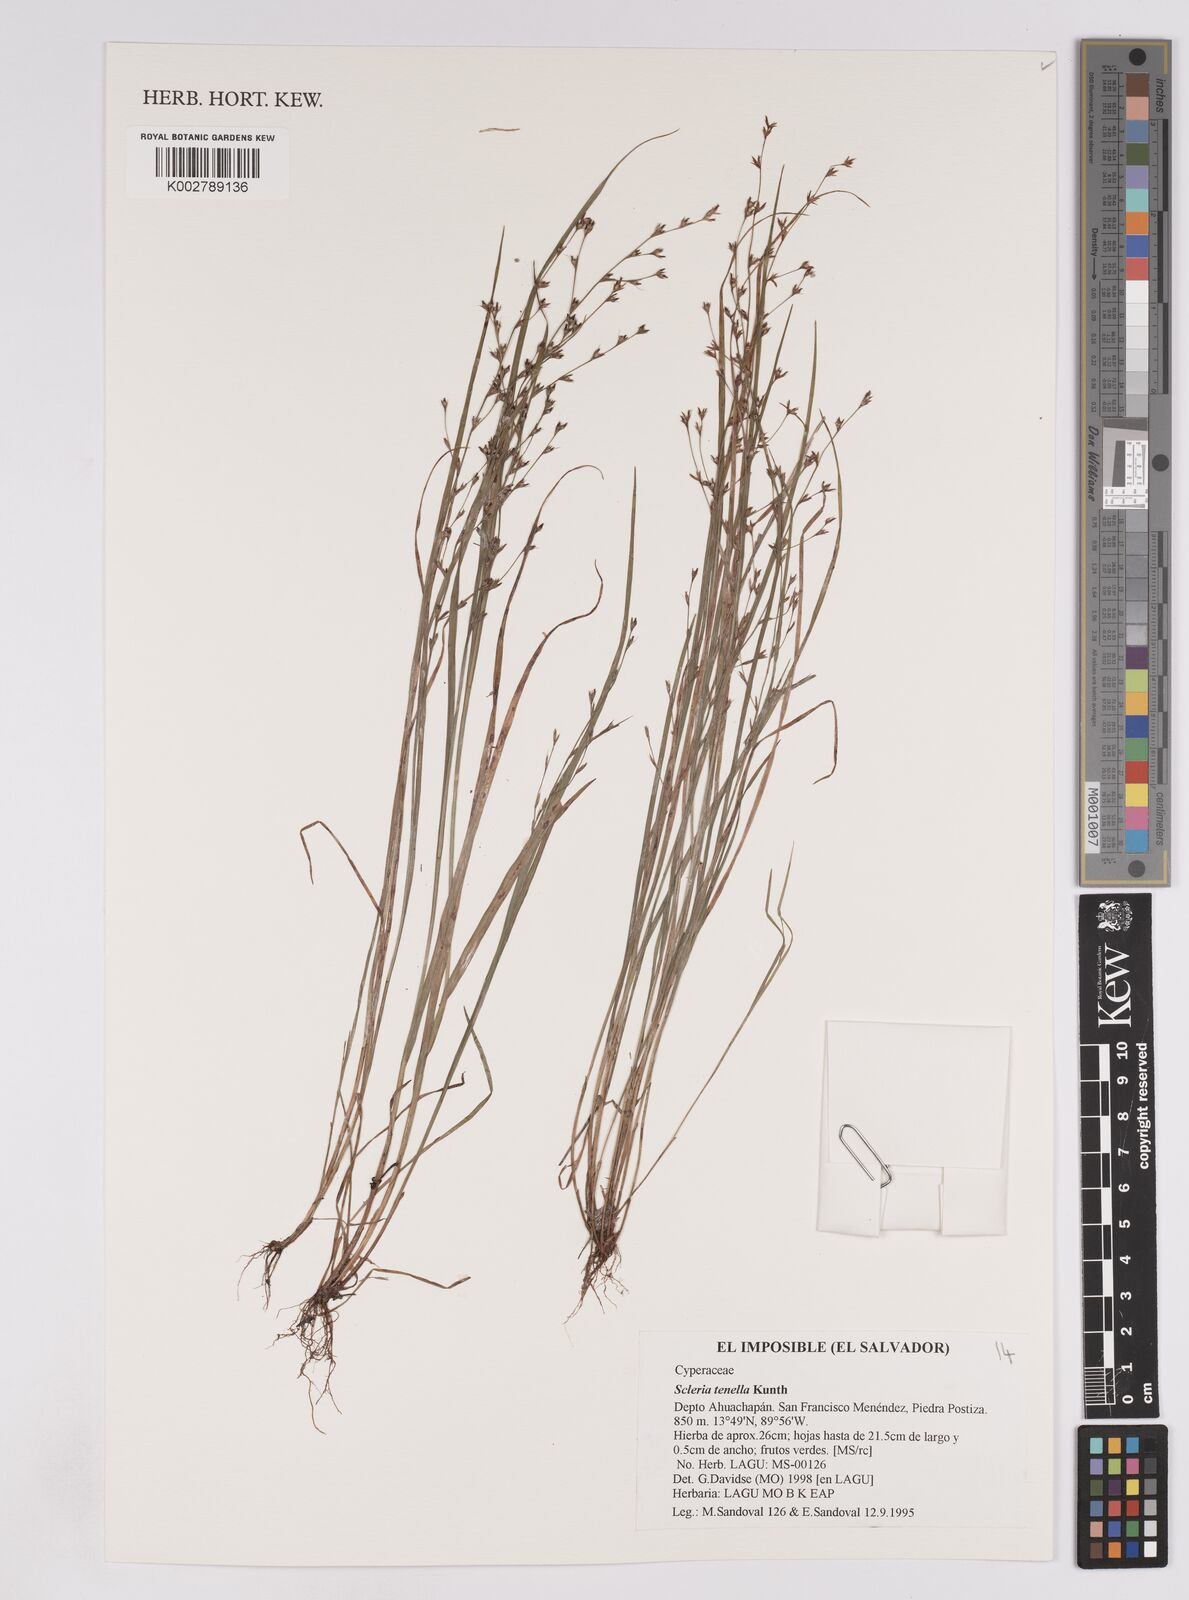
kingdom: Plantae
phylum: Tracheophyta
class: Liliopsida
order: Poales
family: Cyperaceae
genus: Scleria
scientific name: Scleria tenella
